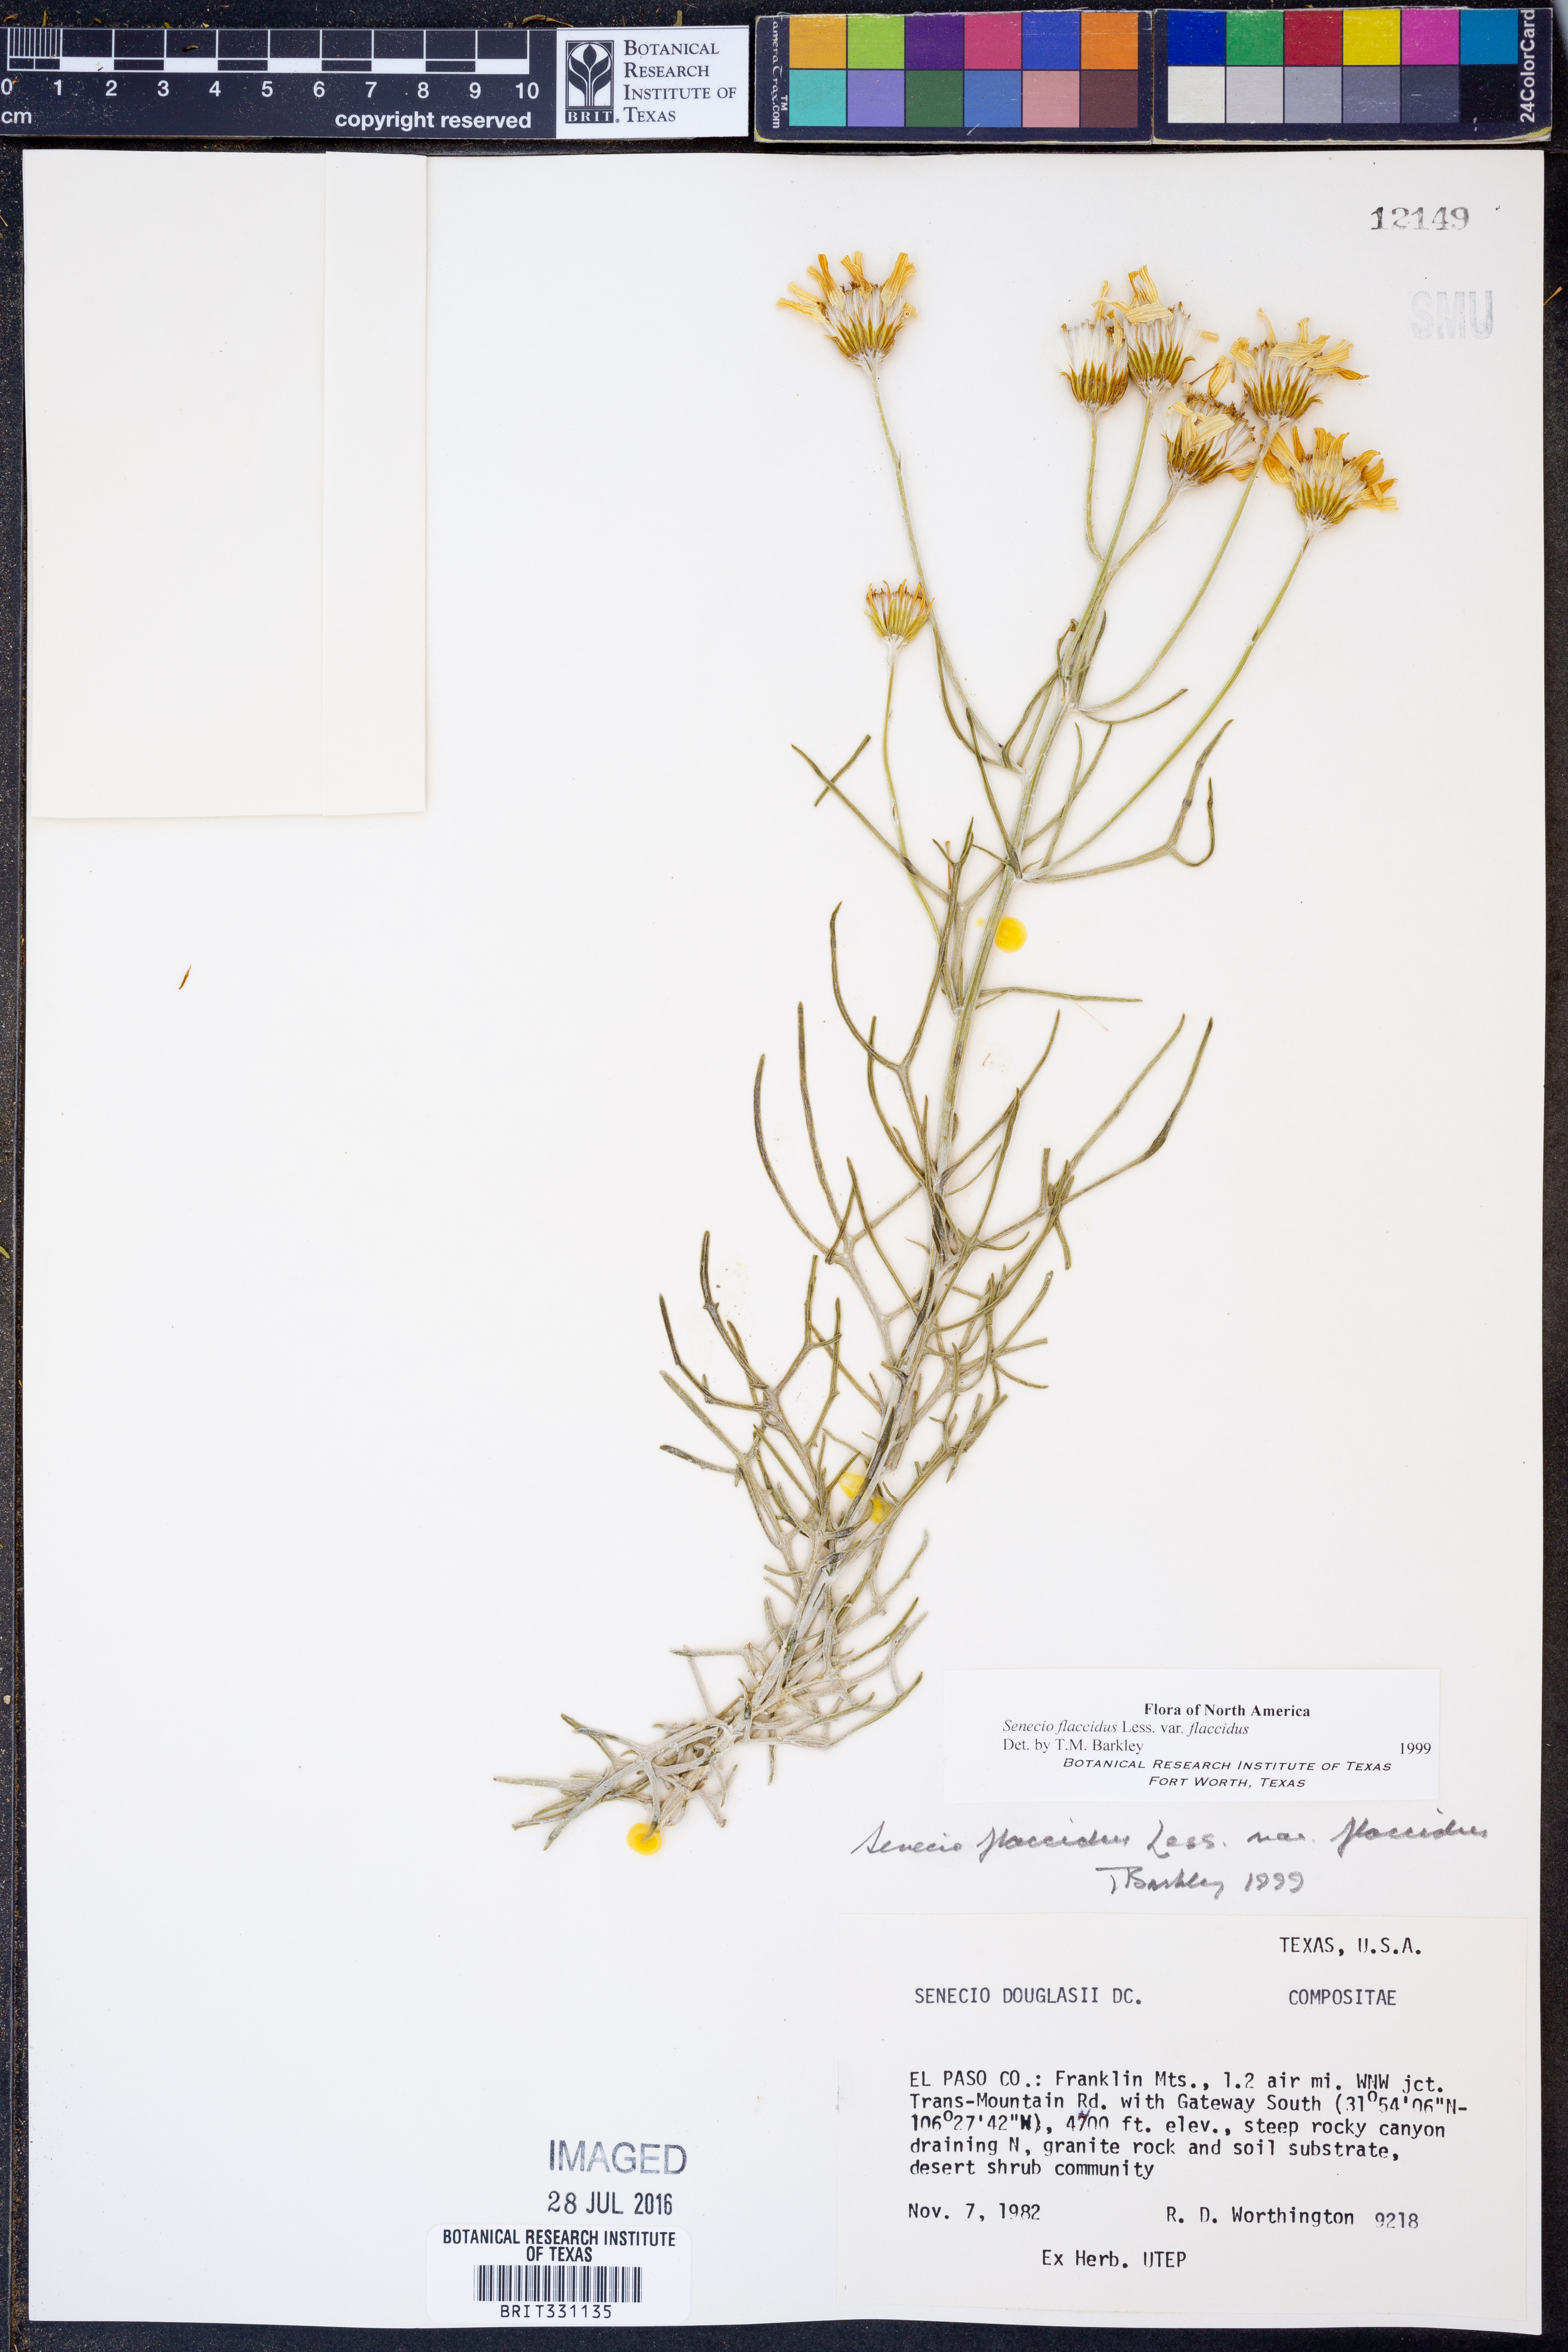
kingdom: Plantae
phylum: Tracheophyta
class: Magnoliopsida
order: Asterales
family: Asteraceae
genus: Senecio
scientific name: Senecio flaccidus
